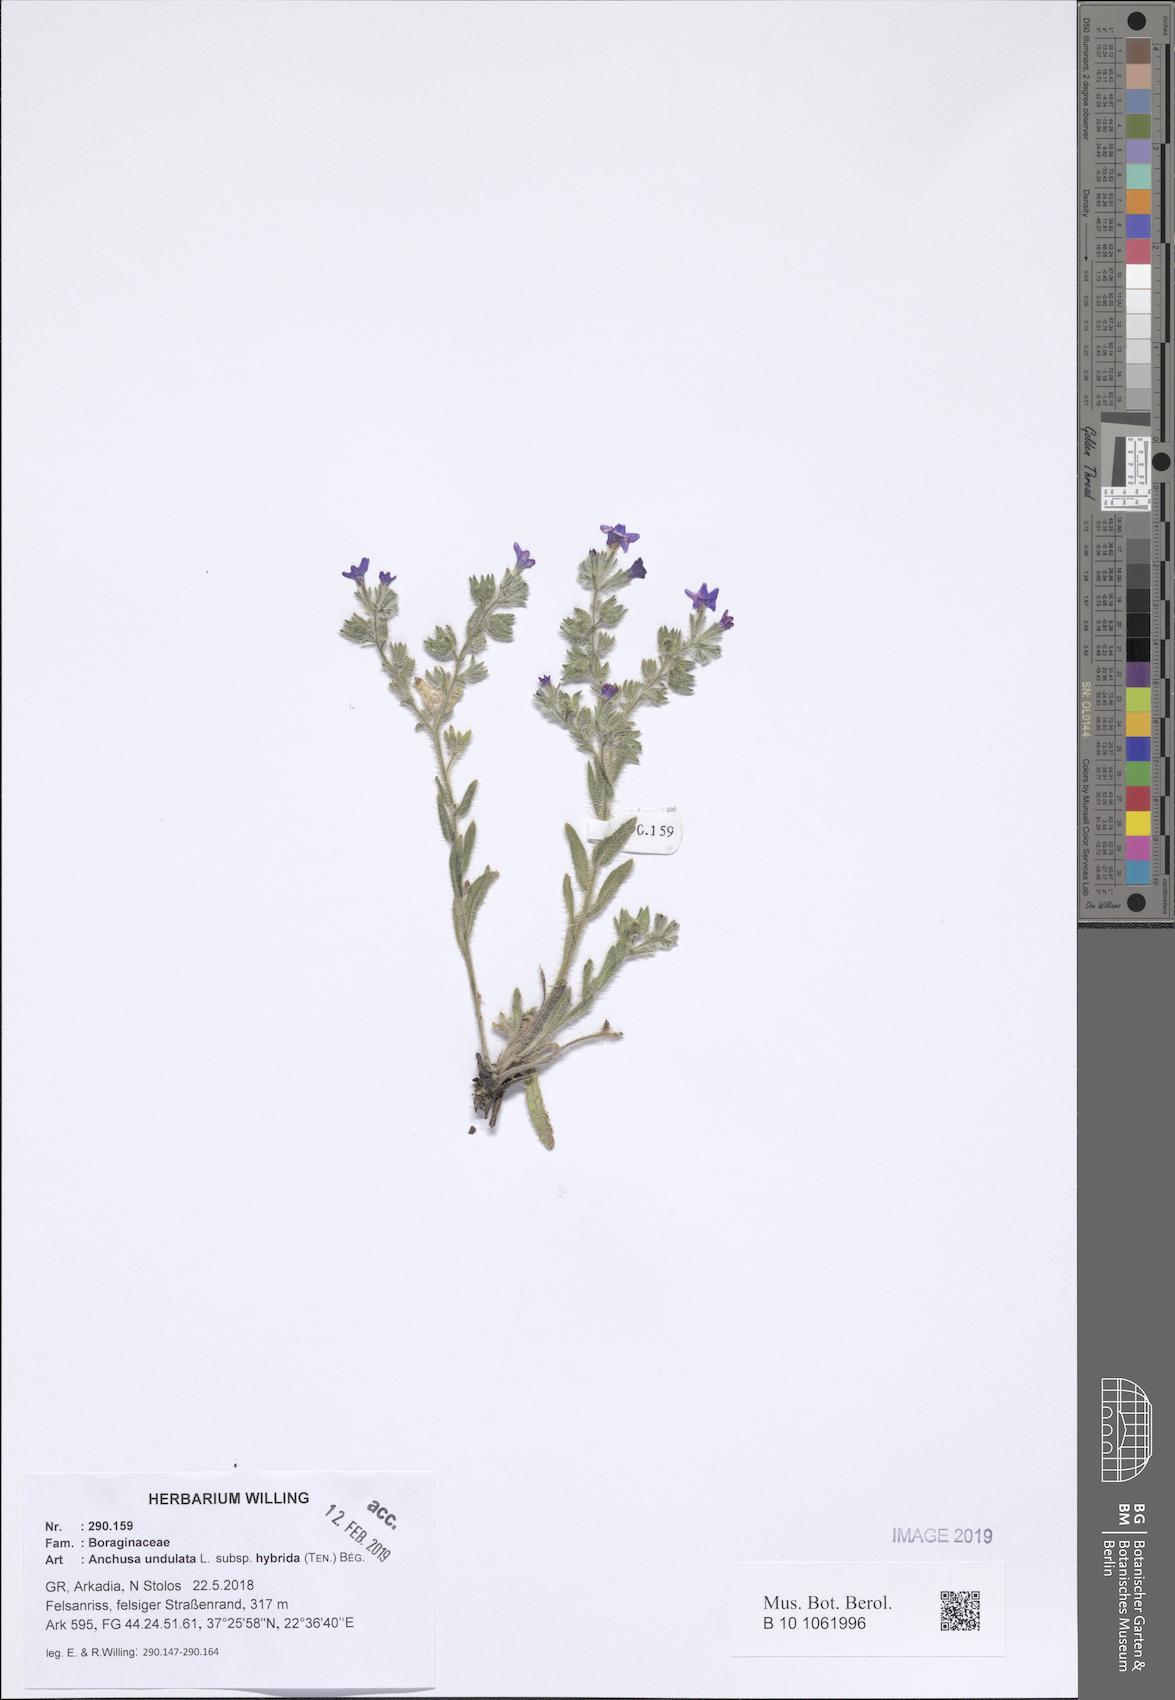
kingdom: Plantae
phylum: Tracheophyta
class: Magnoliopsida
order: Boraginales
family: Boraginaceae
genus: Anchusa
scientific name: Anchusa undulata
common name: Undulate alkanet
